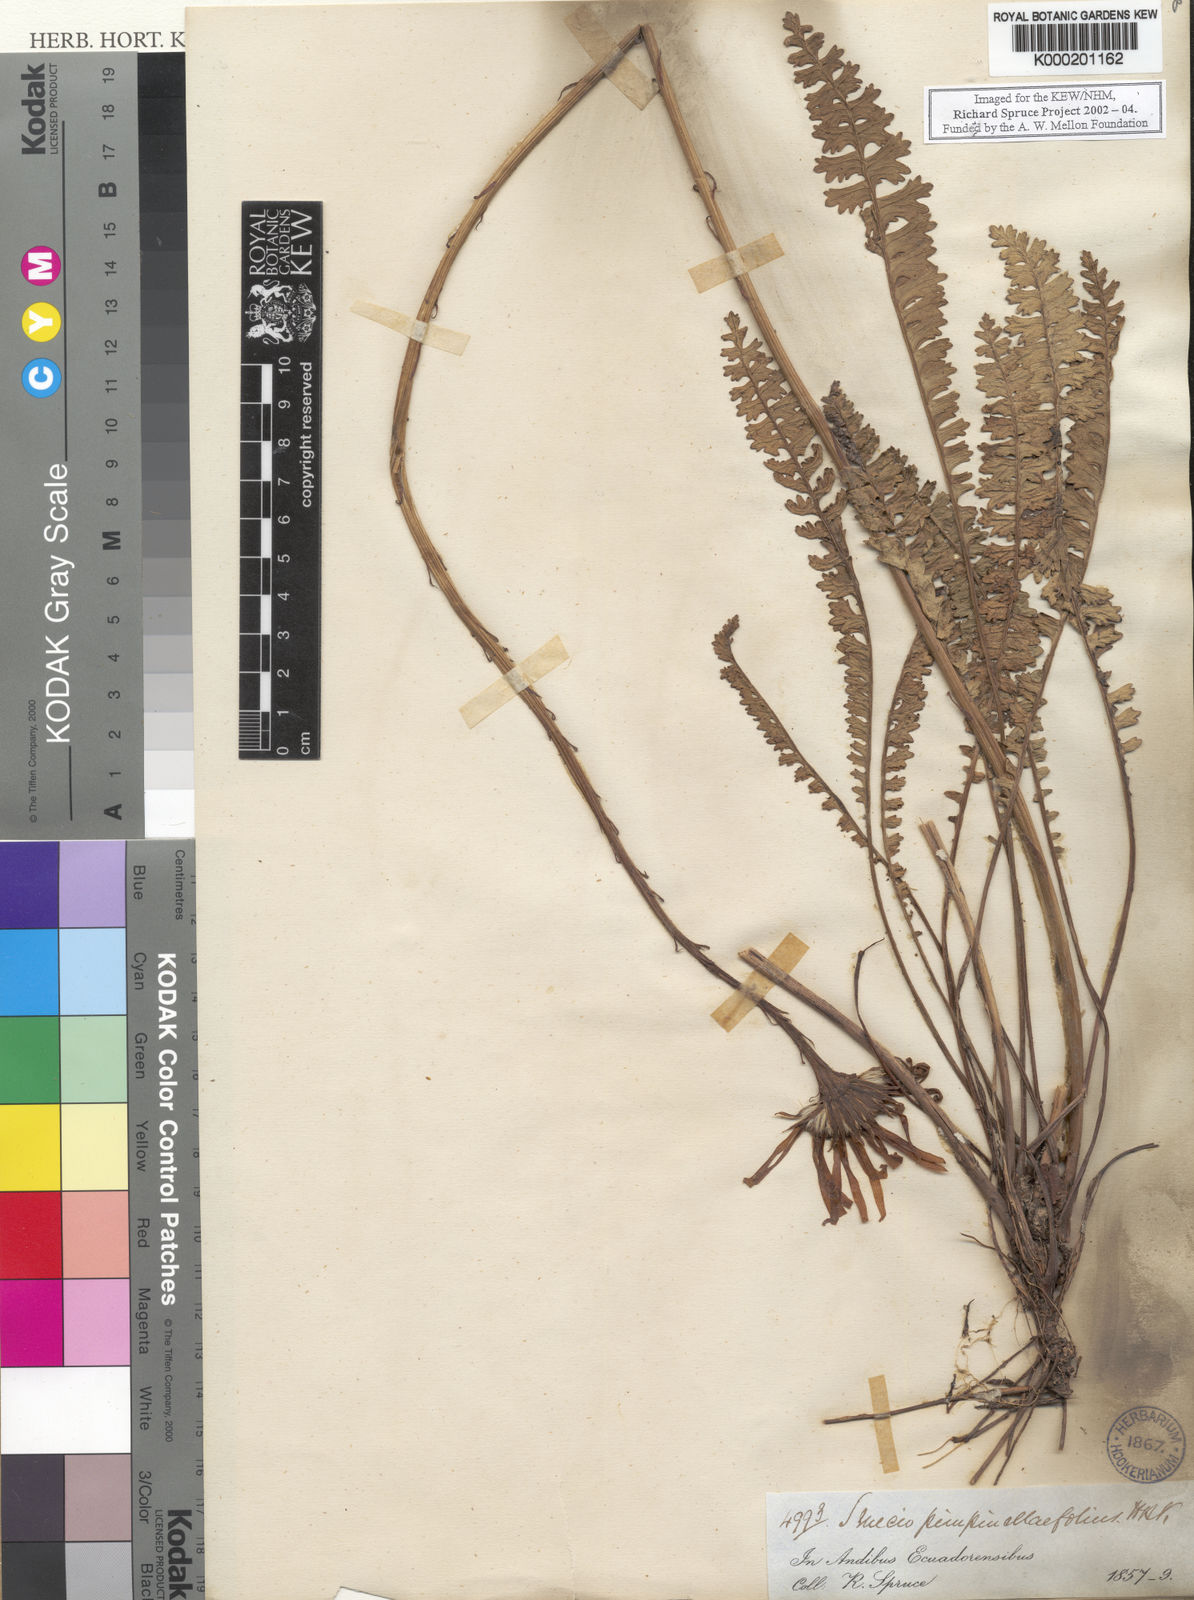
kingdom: Plantae
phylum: Tracheophyta
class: Magnoliopsida
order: Asterales
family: Asteraceae
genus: Dorobaea
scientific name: Dorobaea pimpinellifolia
